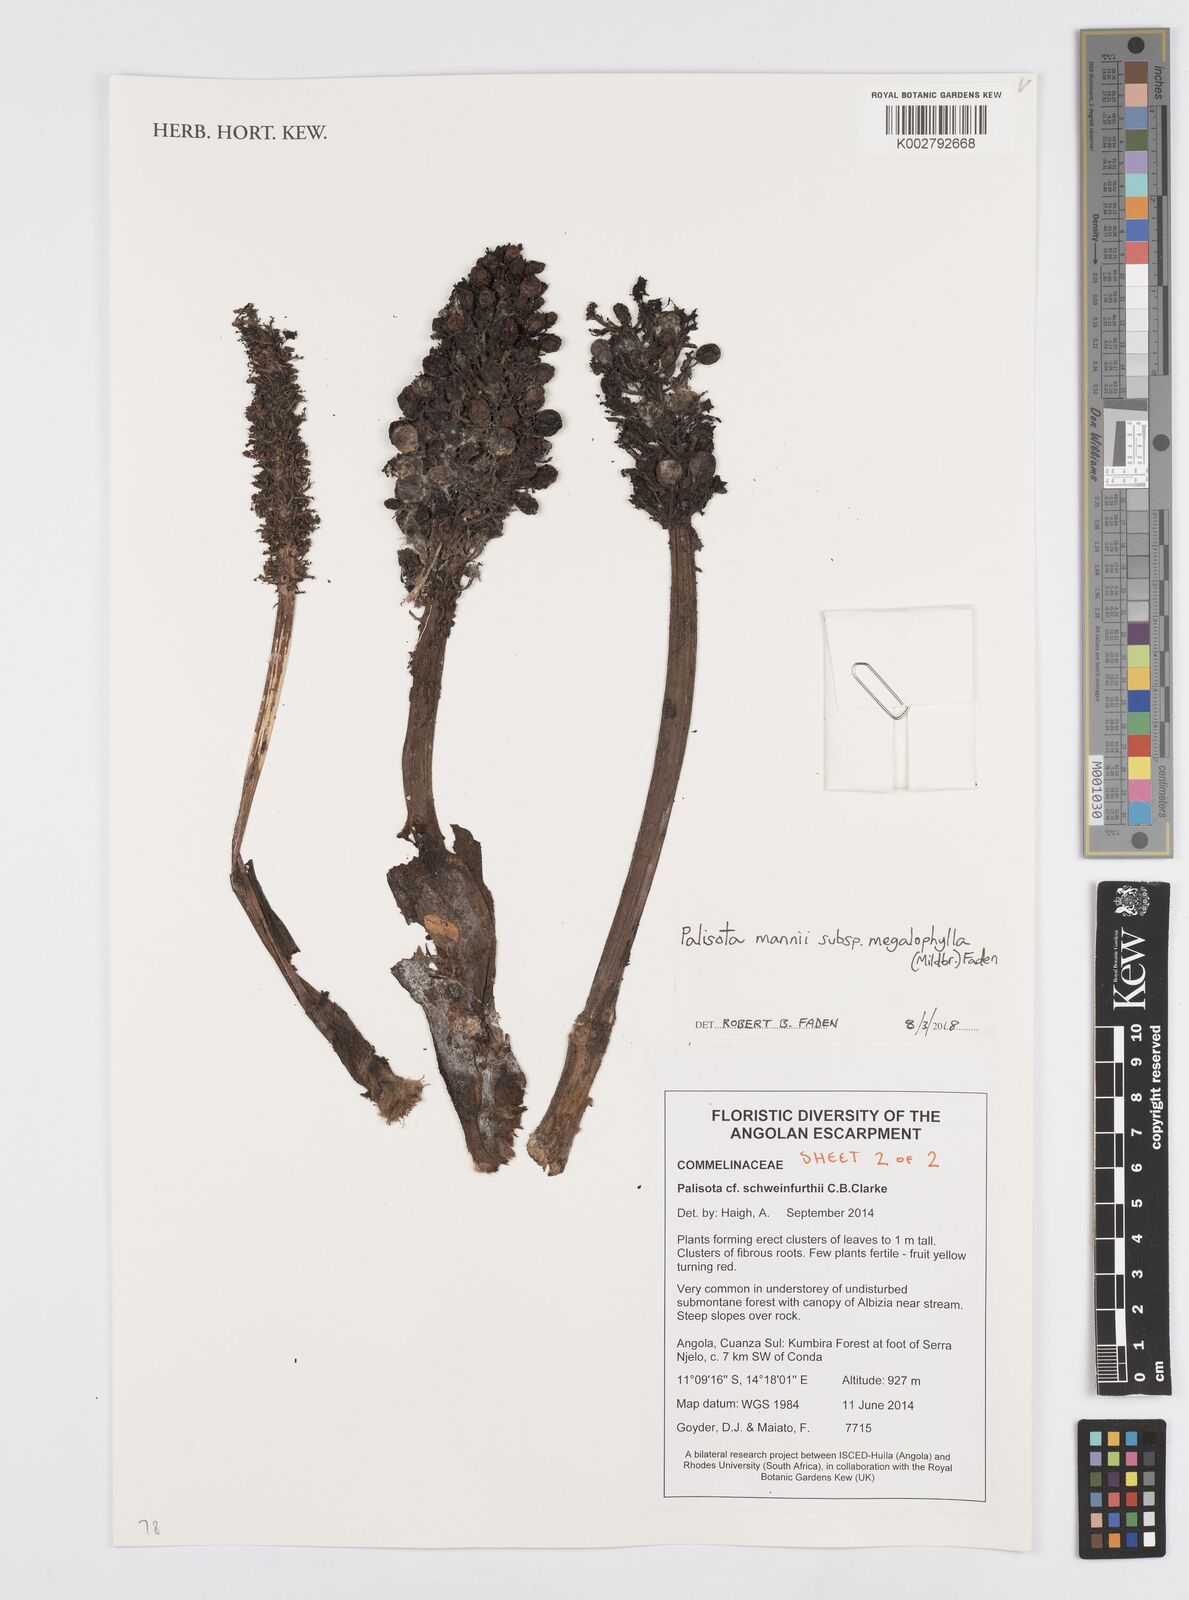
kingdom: Plantae
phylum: Tracheophyta
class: Liliopsida
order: Commelinales
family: Commelinaceae
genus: Palisota
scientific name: Palisota mannii
